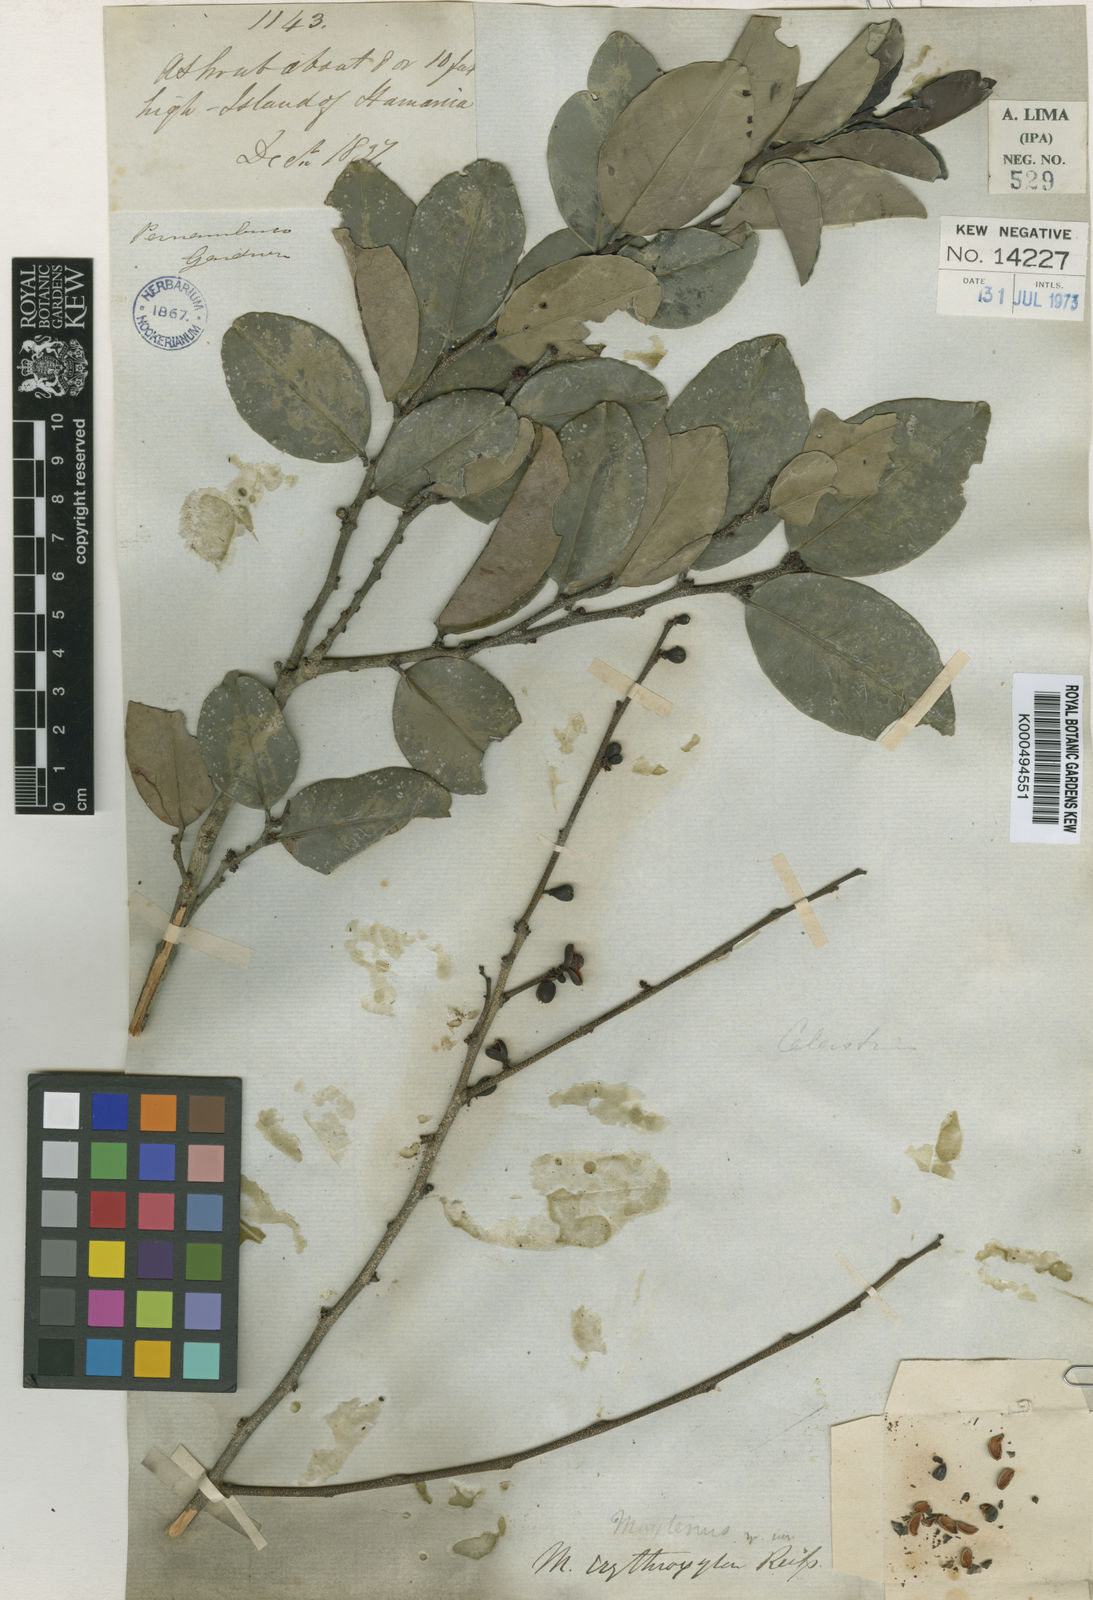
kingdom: Plantae
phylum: Tracheophyta
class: Magnoliopsida
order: Celastrales
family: Celastraceae
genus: Monteverdia
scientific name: Monteverdia erythroxylon
